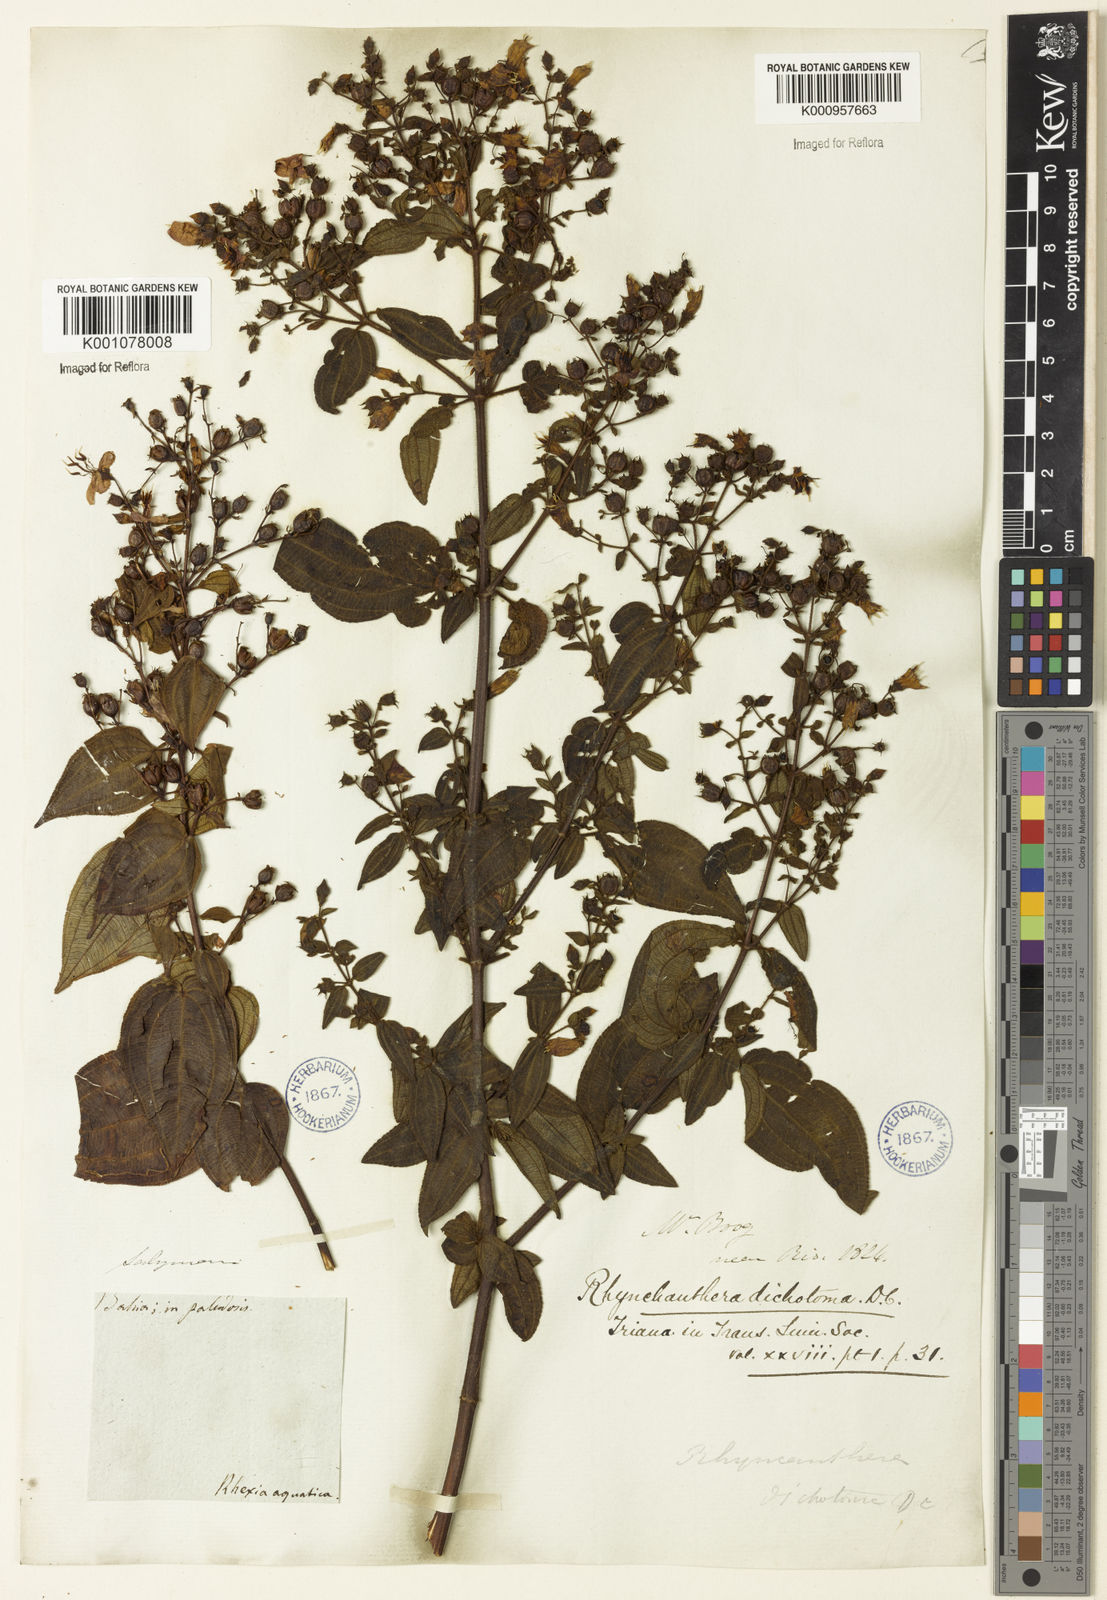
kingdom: Plantae
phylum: Tracheophyta
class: Magnoliopsida
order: Myrtales
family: Melastomataceae
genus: Rhynchanthera
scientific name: Rhynchanthera dichotoma
